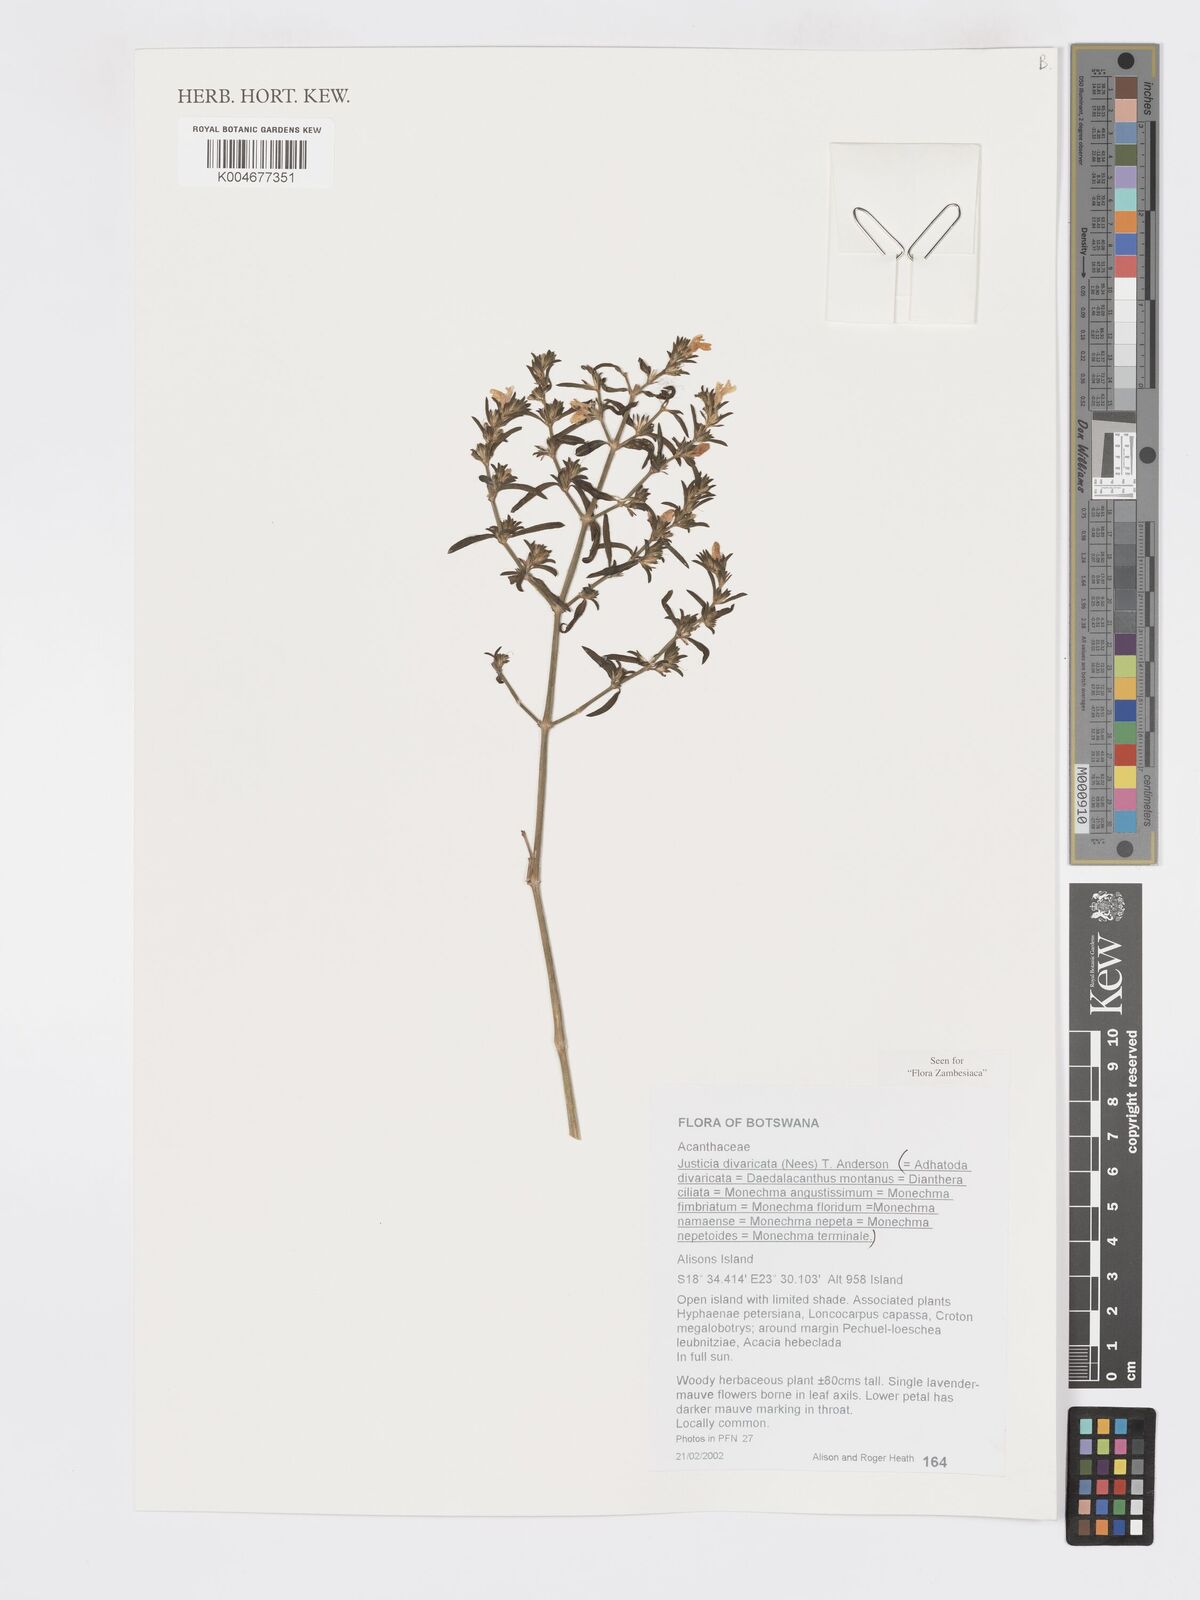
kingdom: Plantae
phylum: Tracheophyta
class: Magnoliopsida
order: Lamiales
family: Acanthaceae
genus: Pogonospermum
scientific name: Pogonospermum
